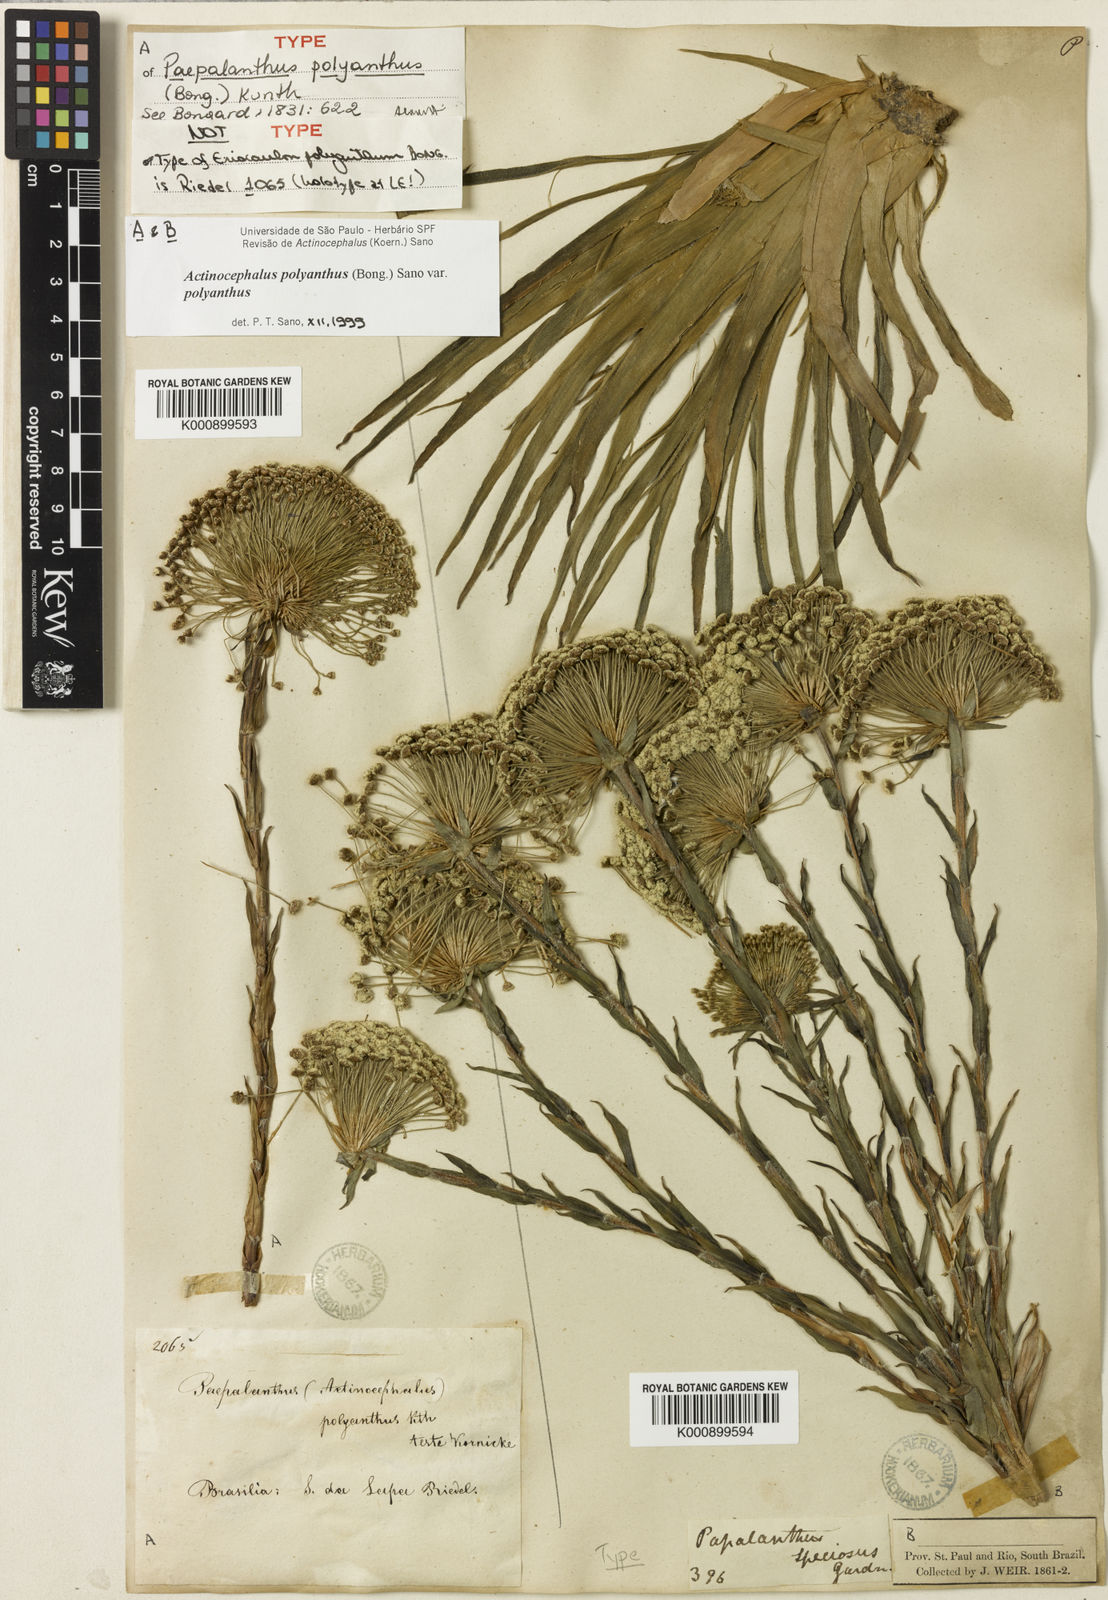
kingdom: Plantae
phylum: Tracheophyta
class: Liliopsida
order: Poales
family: Eriocaulaceae
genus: Paepalanthus
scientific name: Paepalanthus polyanthus
